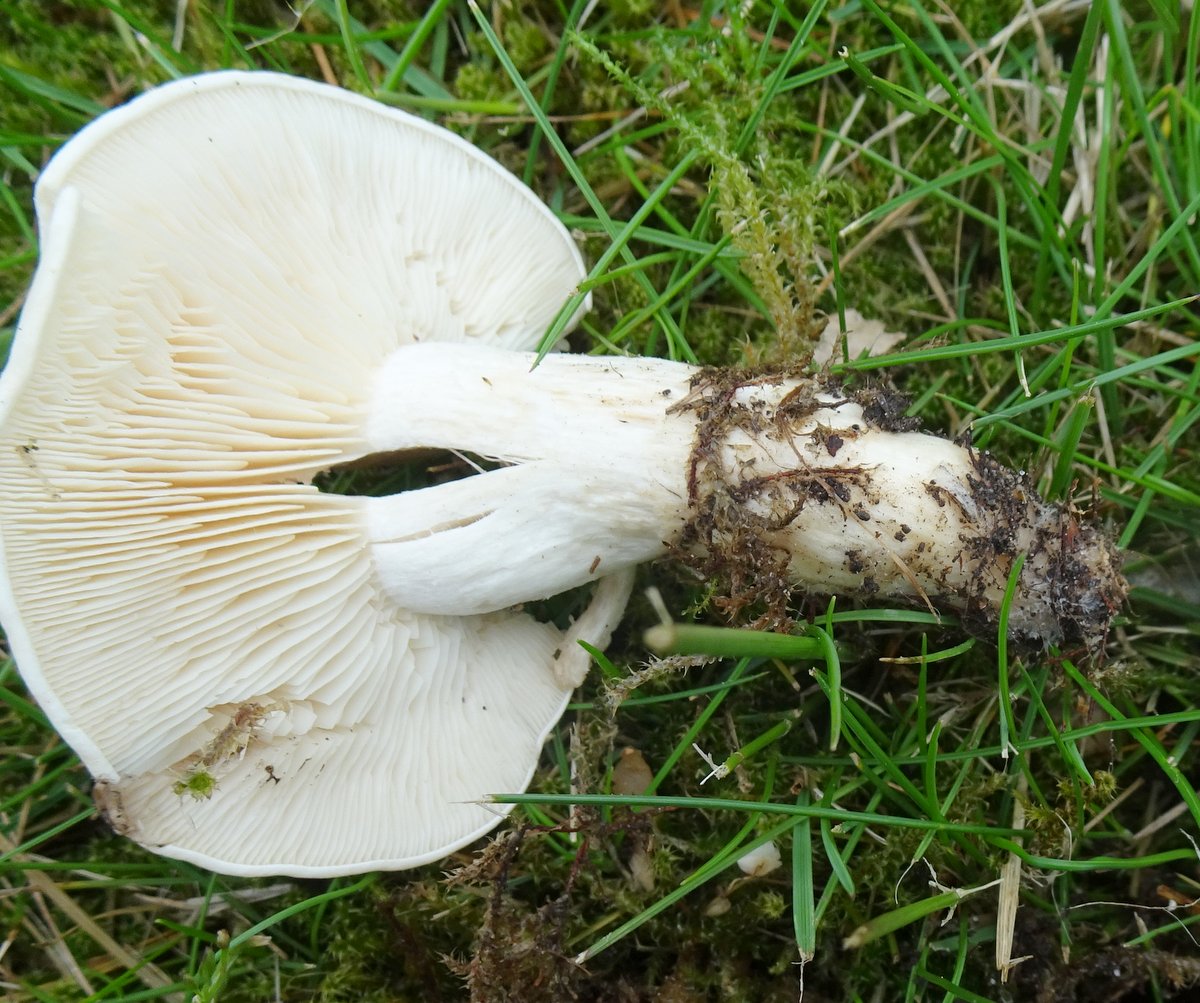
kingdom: Fungi
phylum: Basidiomycota
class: Agaricomycetes
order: Agaricales
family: Lyophyllaceae
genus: Calocybe
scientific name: Calocybe gambosa
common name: vårmusseron
